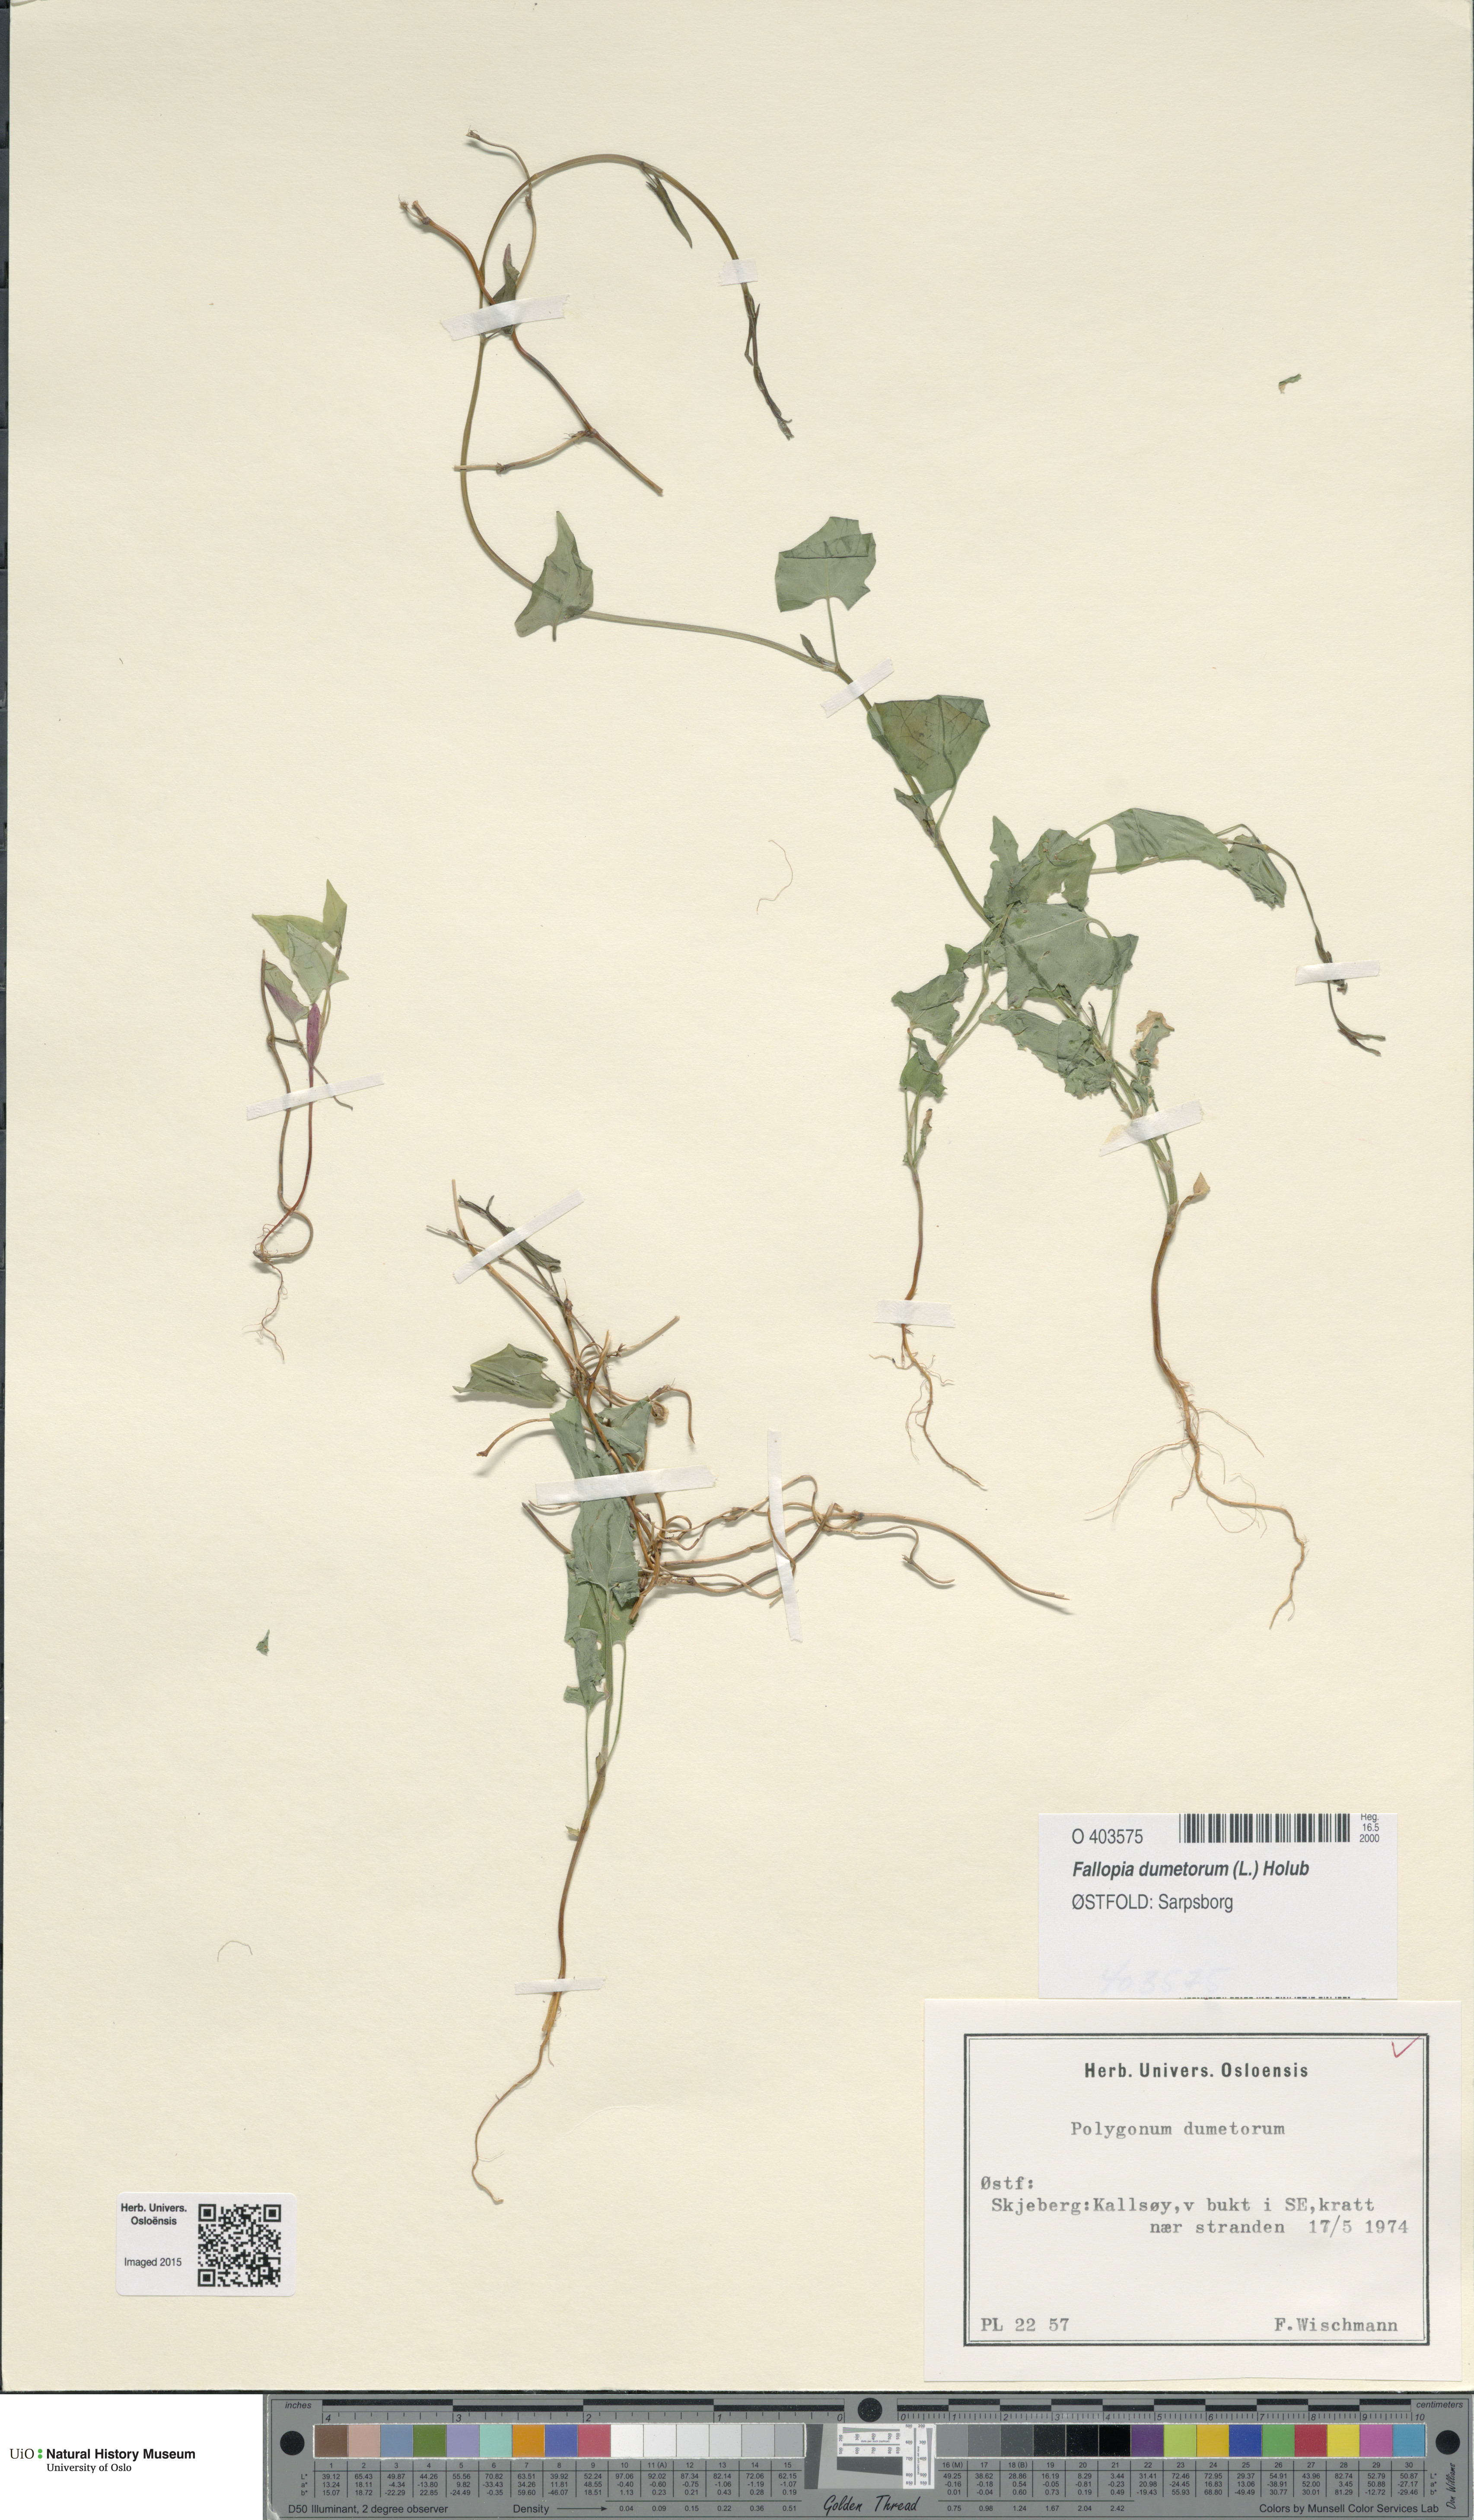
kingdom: Plantae
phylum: Tracheophyta
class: Magnoliopsida
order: Caryophyllales
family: Polygonaceae
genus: Fallopia
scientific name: Fallopia dumetorum
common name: Copse-bindweed
